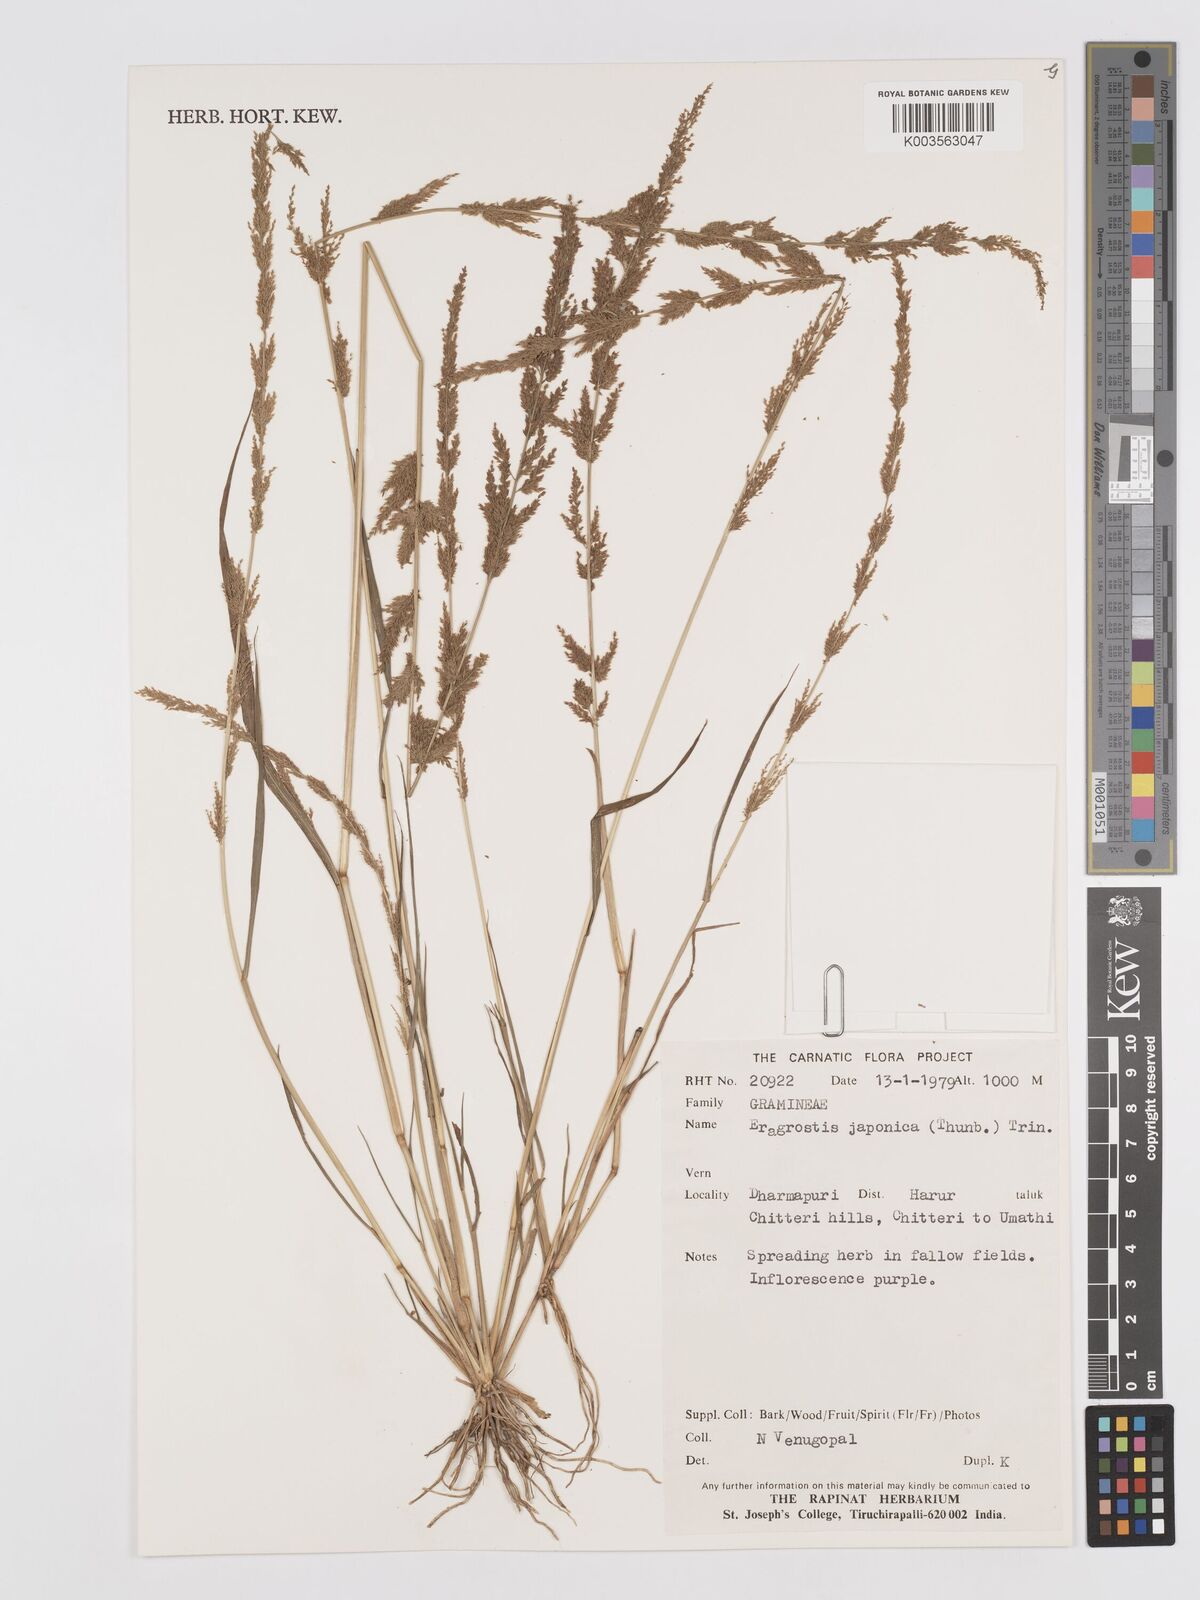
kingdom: Plantae
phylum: Tracheophyta
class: Liliopsida
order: Poales
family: Poaceae
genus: Eragrostis
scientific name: Eragrostis japonica
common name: Pond lovegrass
